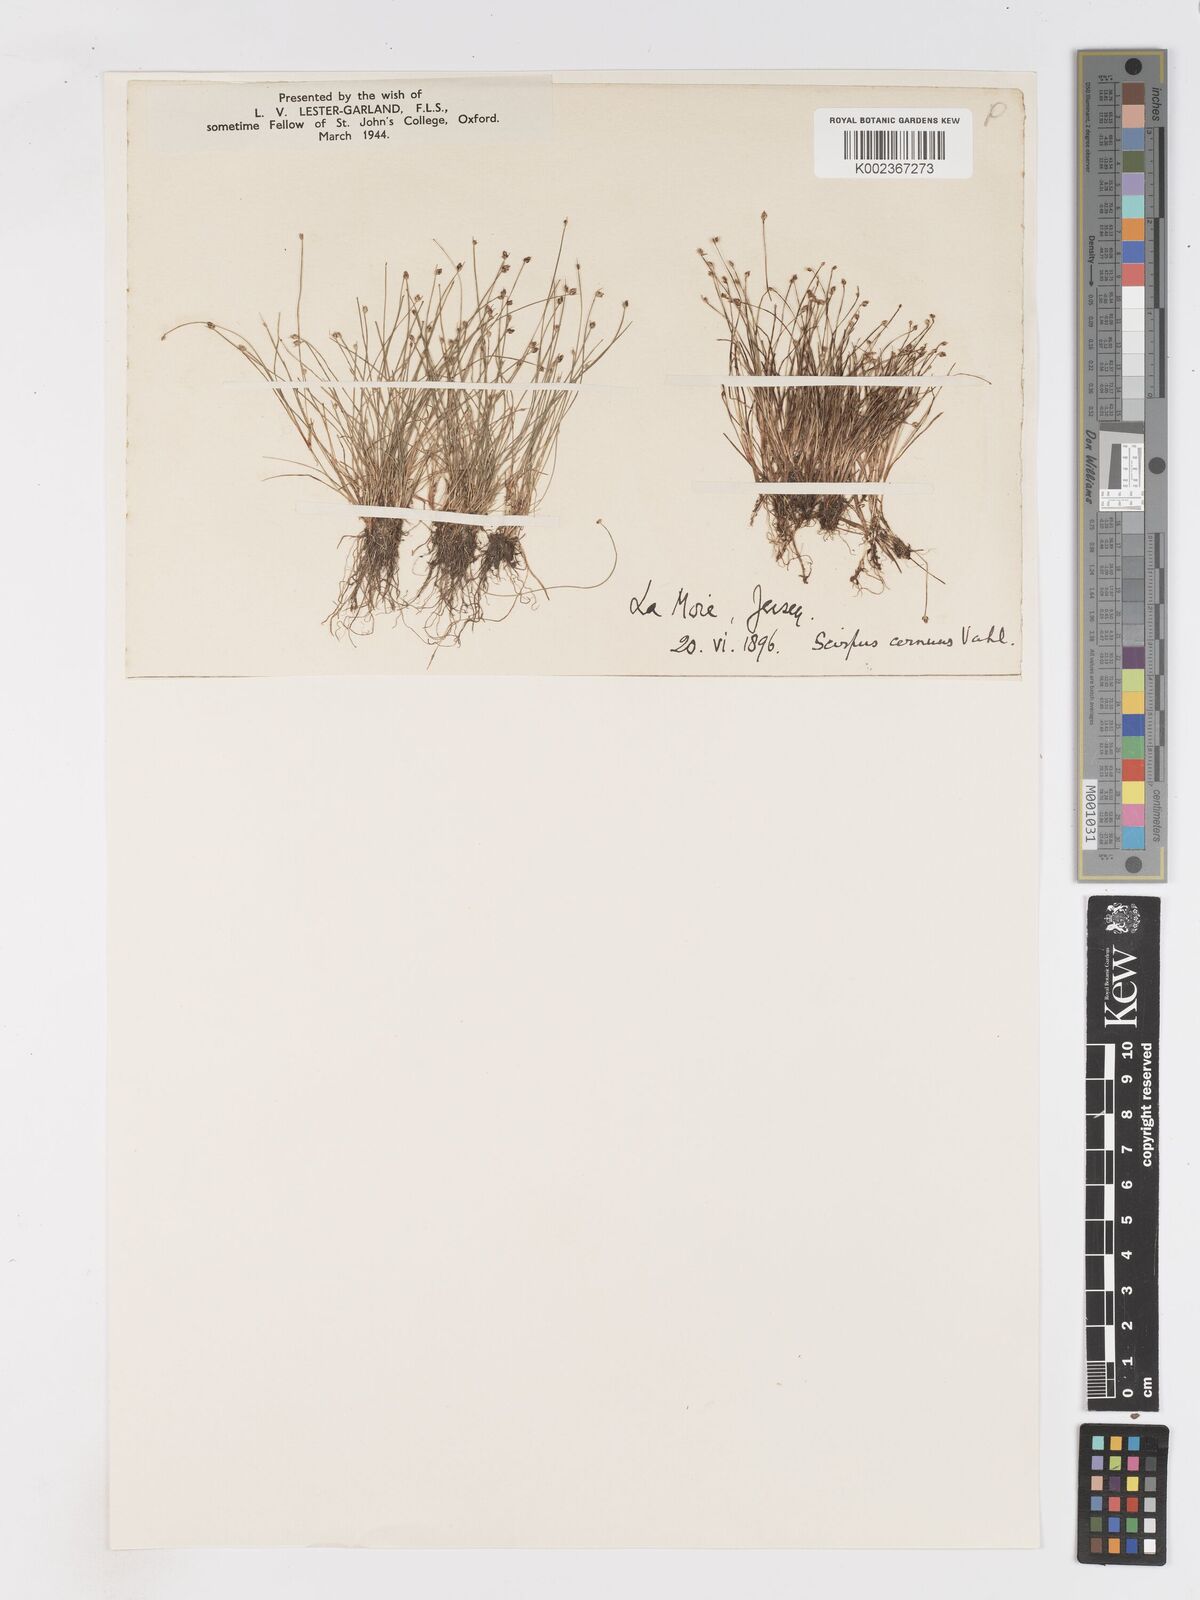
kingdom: Plantae
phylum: Tracheophyta
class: Liliopsida
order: Poales
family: Cyperaceae
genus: Isolepis
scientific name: Isolepis cernua
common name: Slender club-rush
